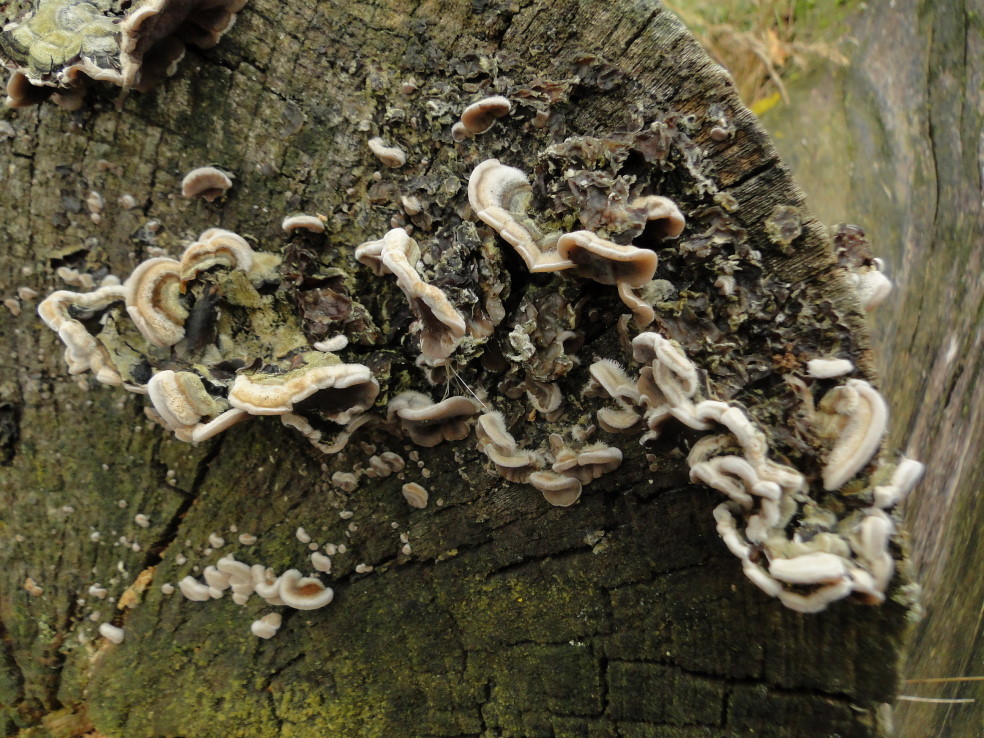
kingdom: Fungi
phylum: Basidiomycota
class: Agaricomycetes
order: Auriculariales
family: Auriculariaceae
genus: Auricularia
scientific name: Auricularia mesenterica
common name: håret judasøre
